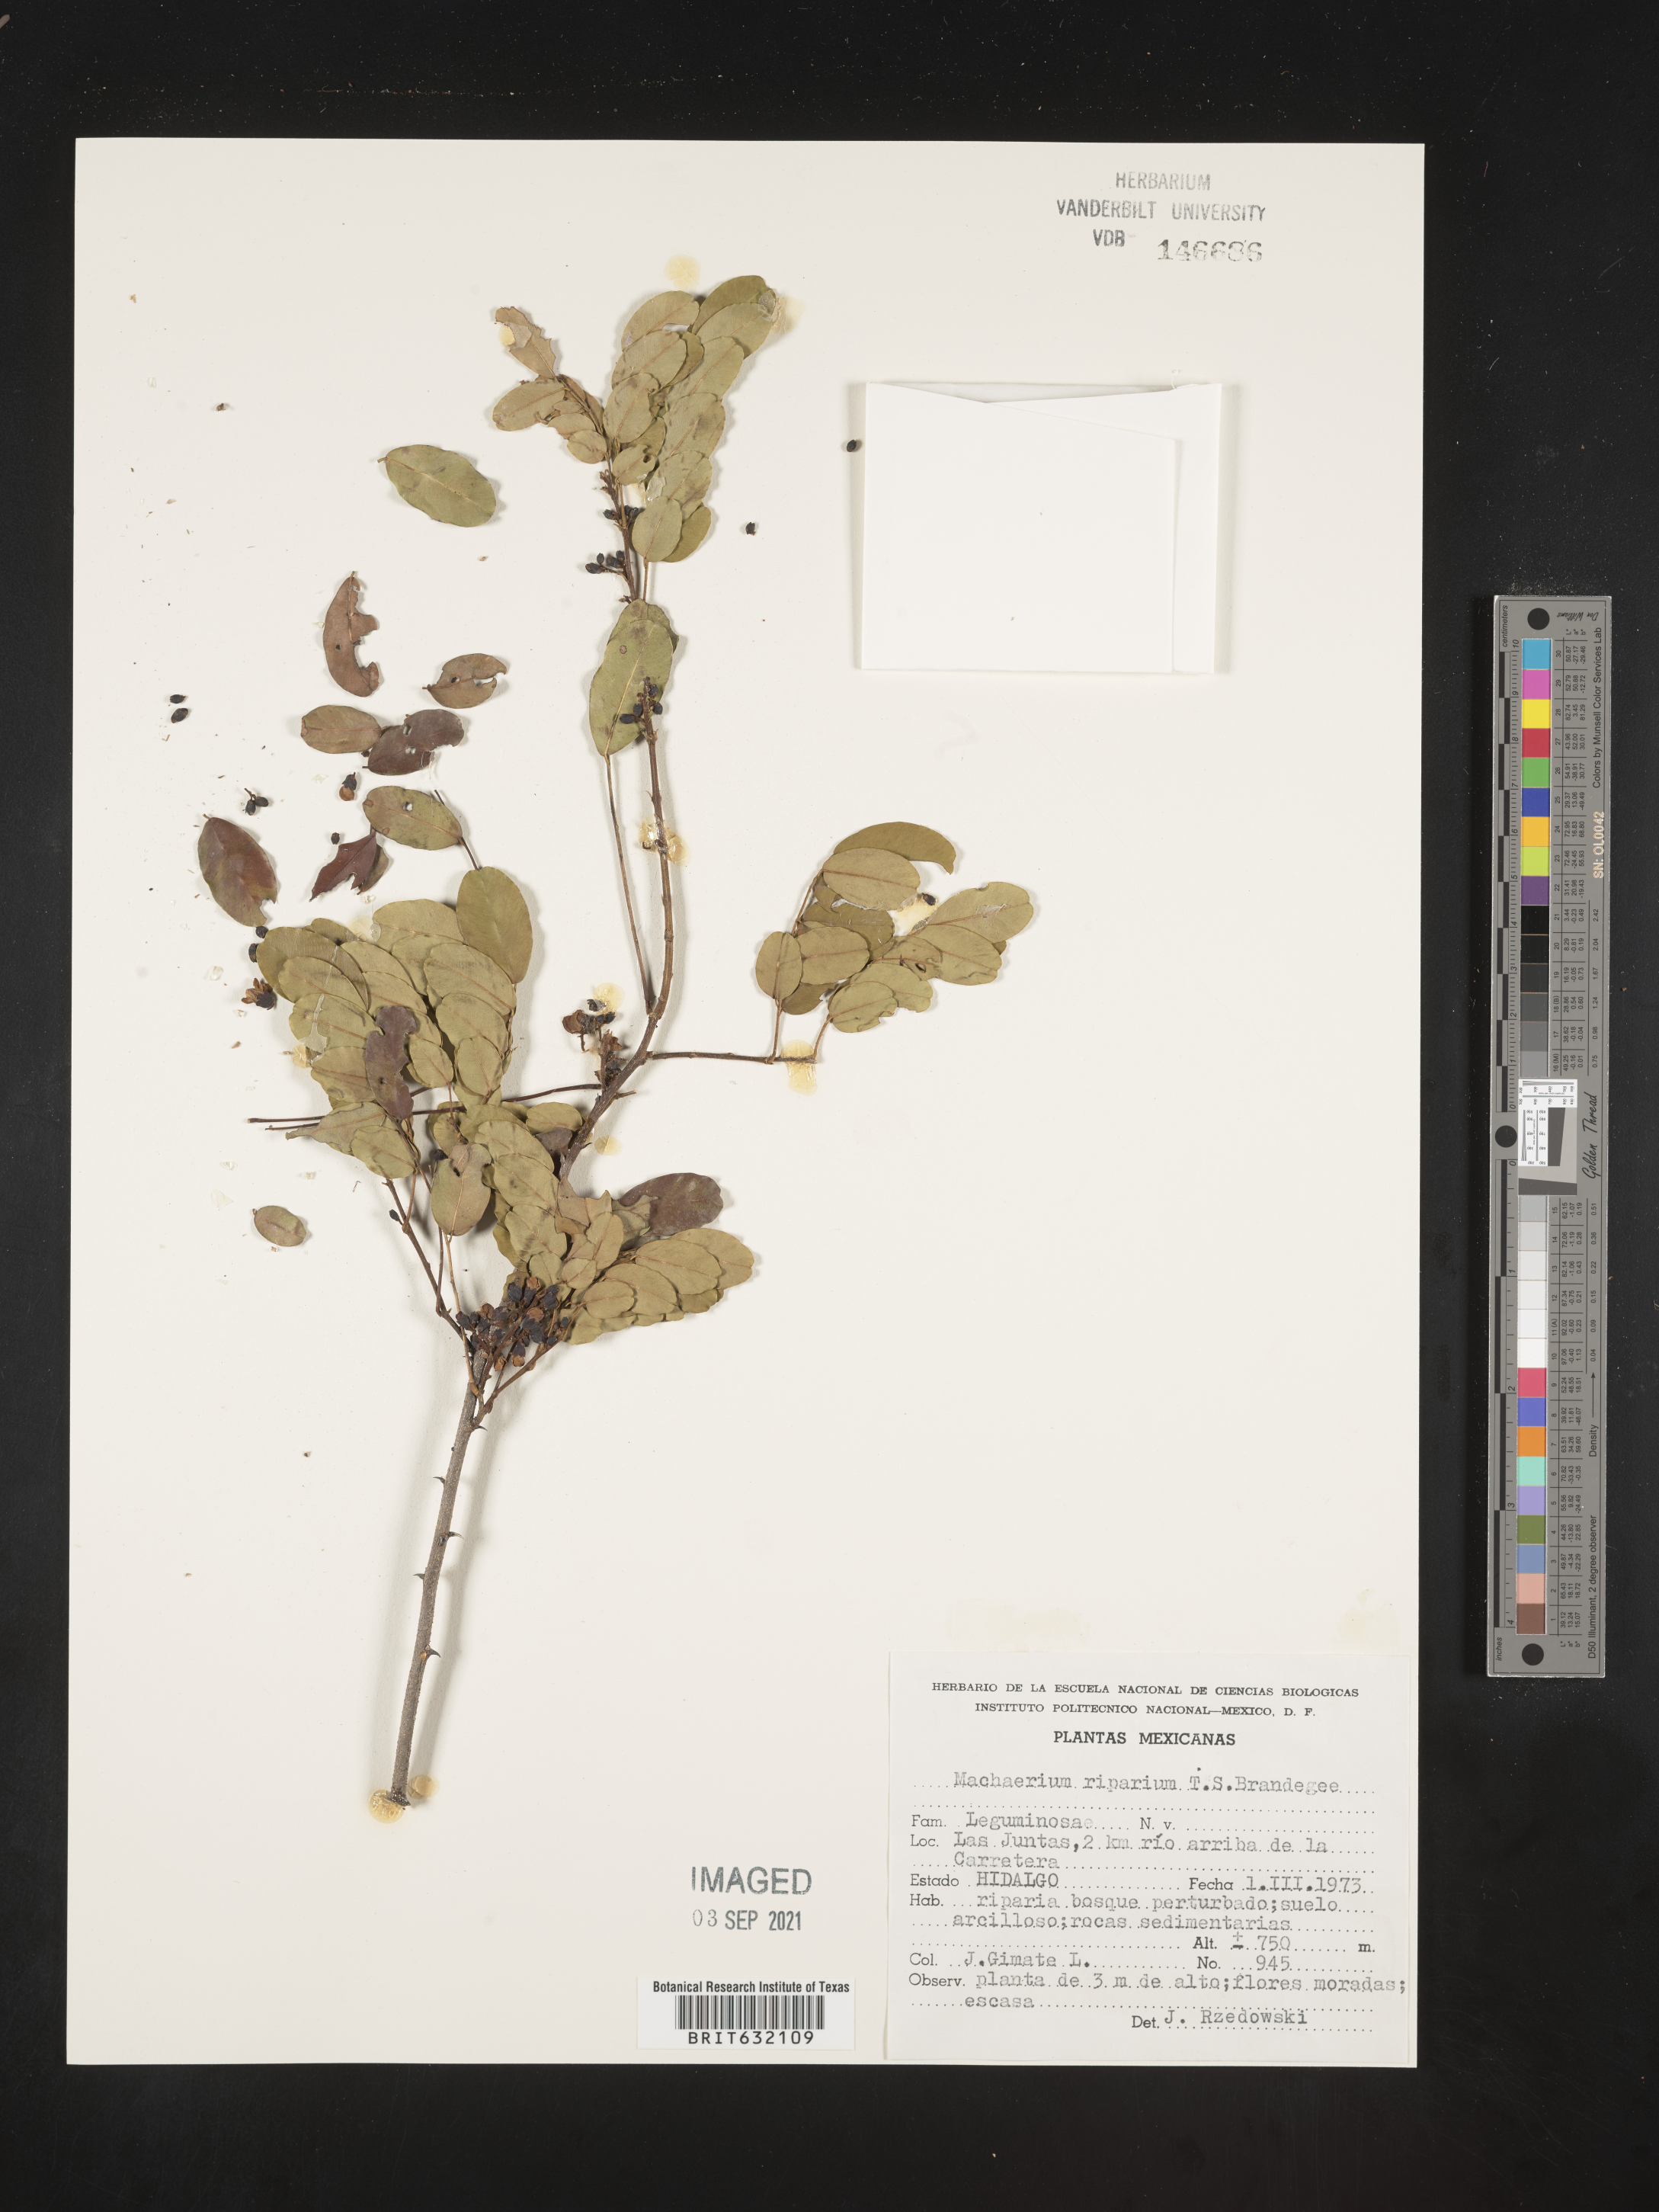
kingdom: Plantae
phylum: Tracheophyta
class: Magnoliopsida
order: Fabales
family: Fabaceae
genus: Machaerium
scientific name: Machaerium riparium
